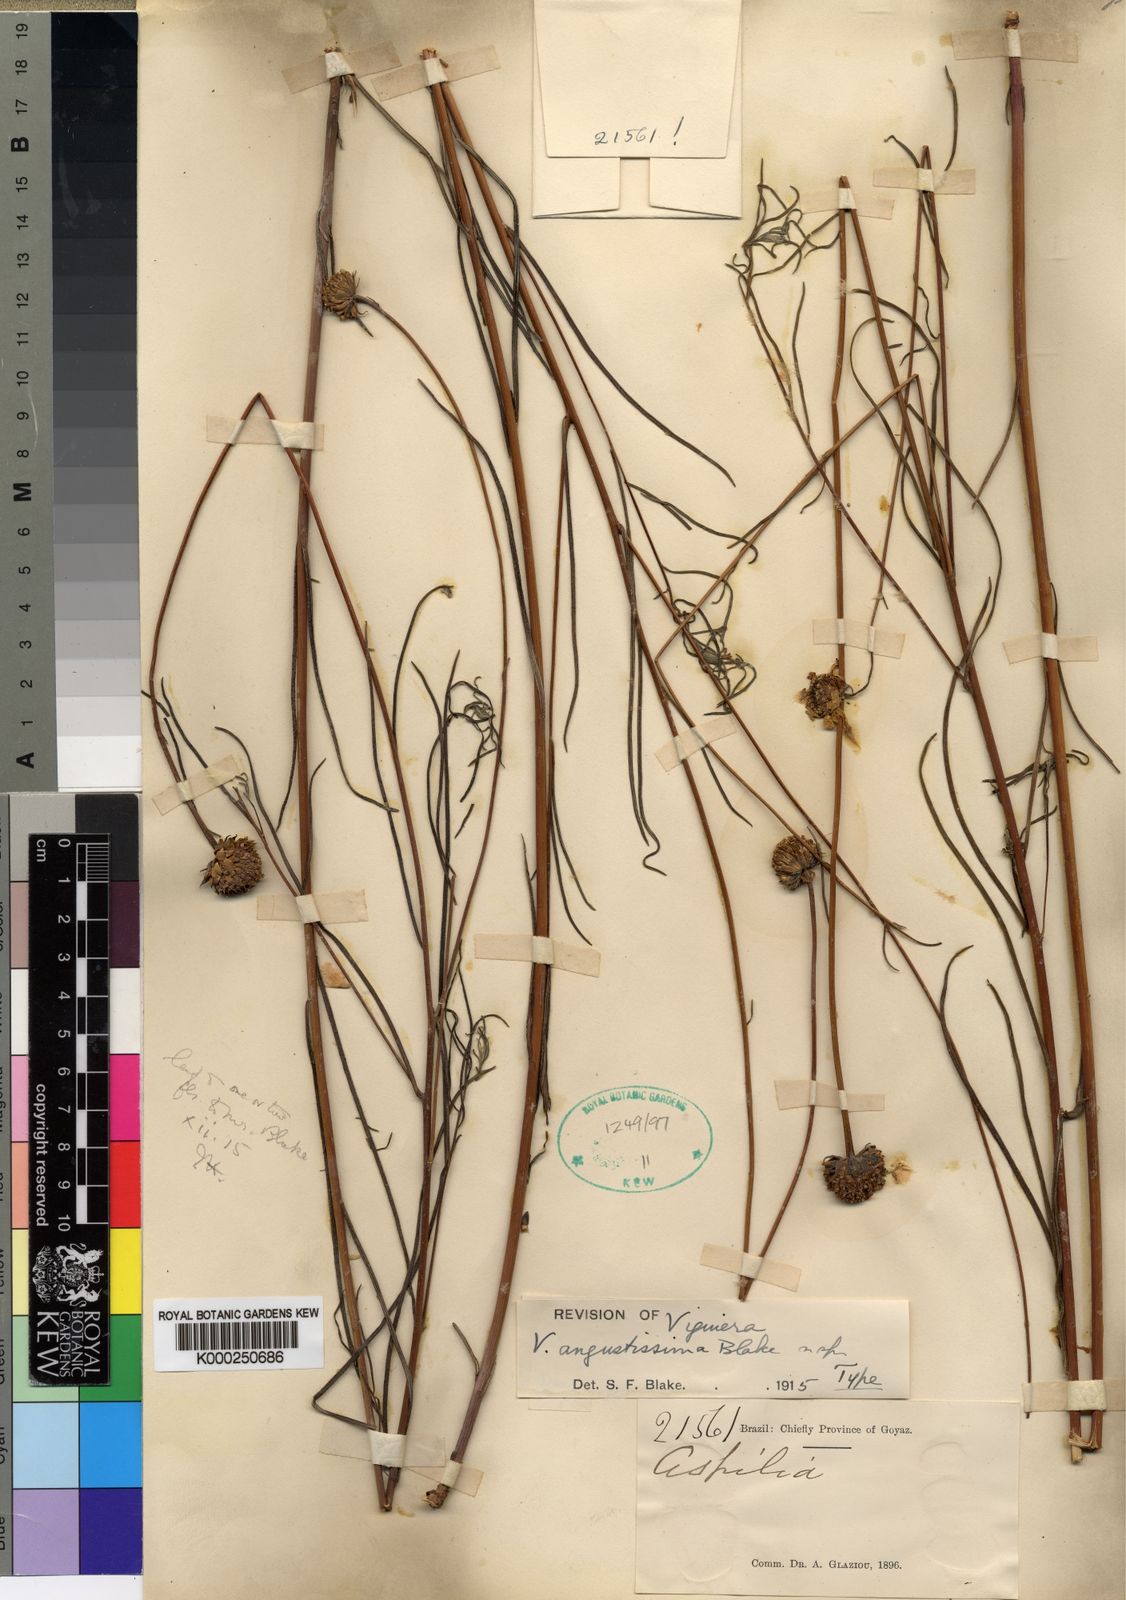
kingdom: Plantae
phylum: Tracheophyta
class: Magnoliopsida
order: Asterales
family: Asteraceae
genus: Aldama
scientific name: Aldama angustissima
